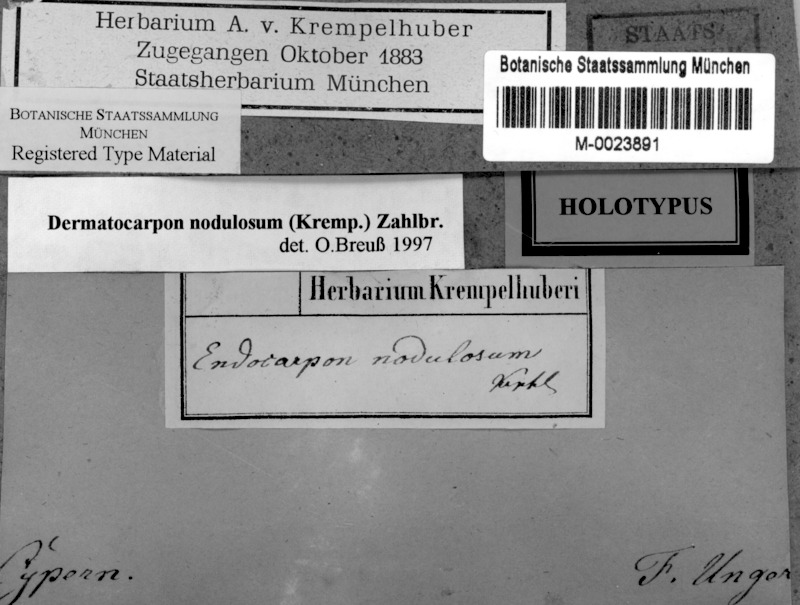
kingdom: Fungi
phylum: Ascomycota
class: Eurotiomycetes
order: Verrucariales
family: Verrucariaceae
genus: Dermatocarpon
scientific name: Dermatocarpon
